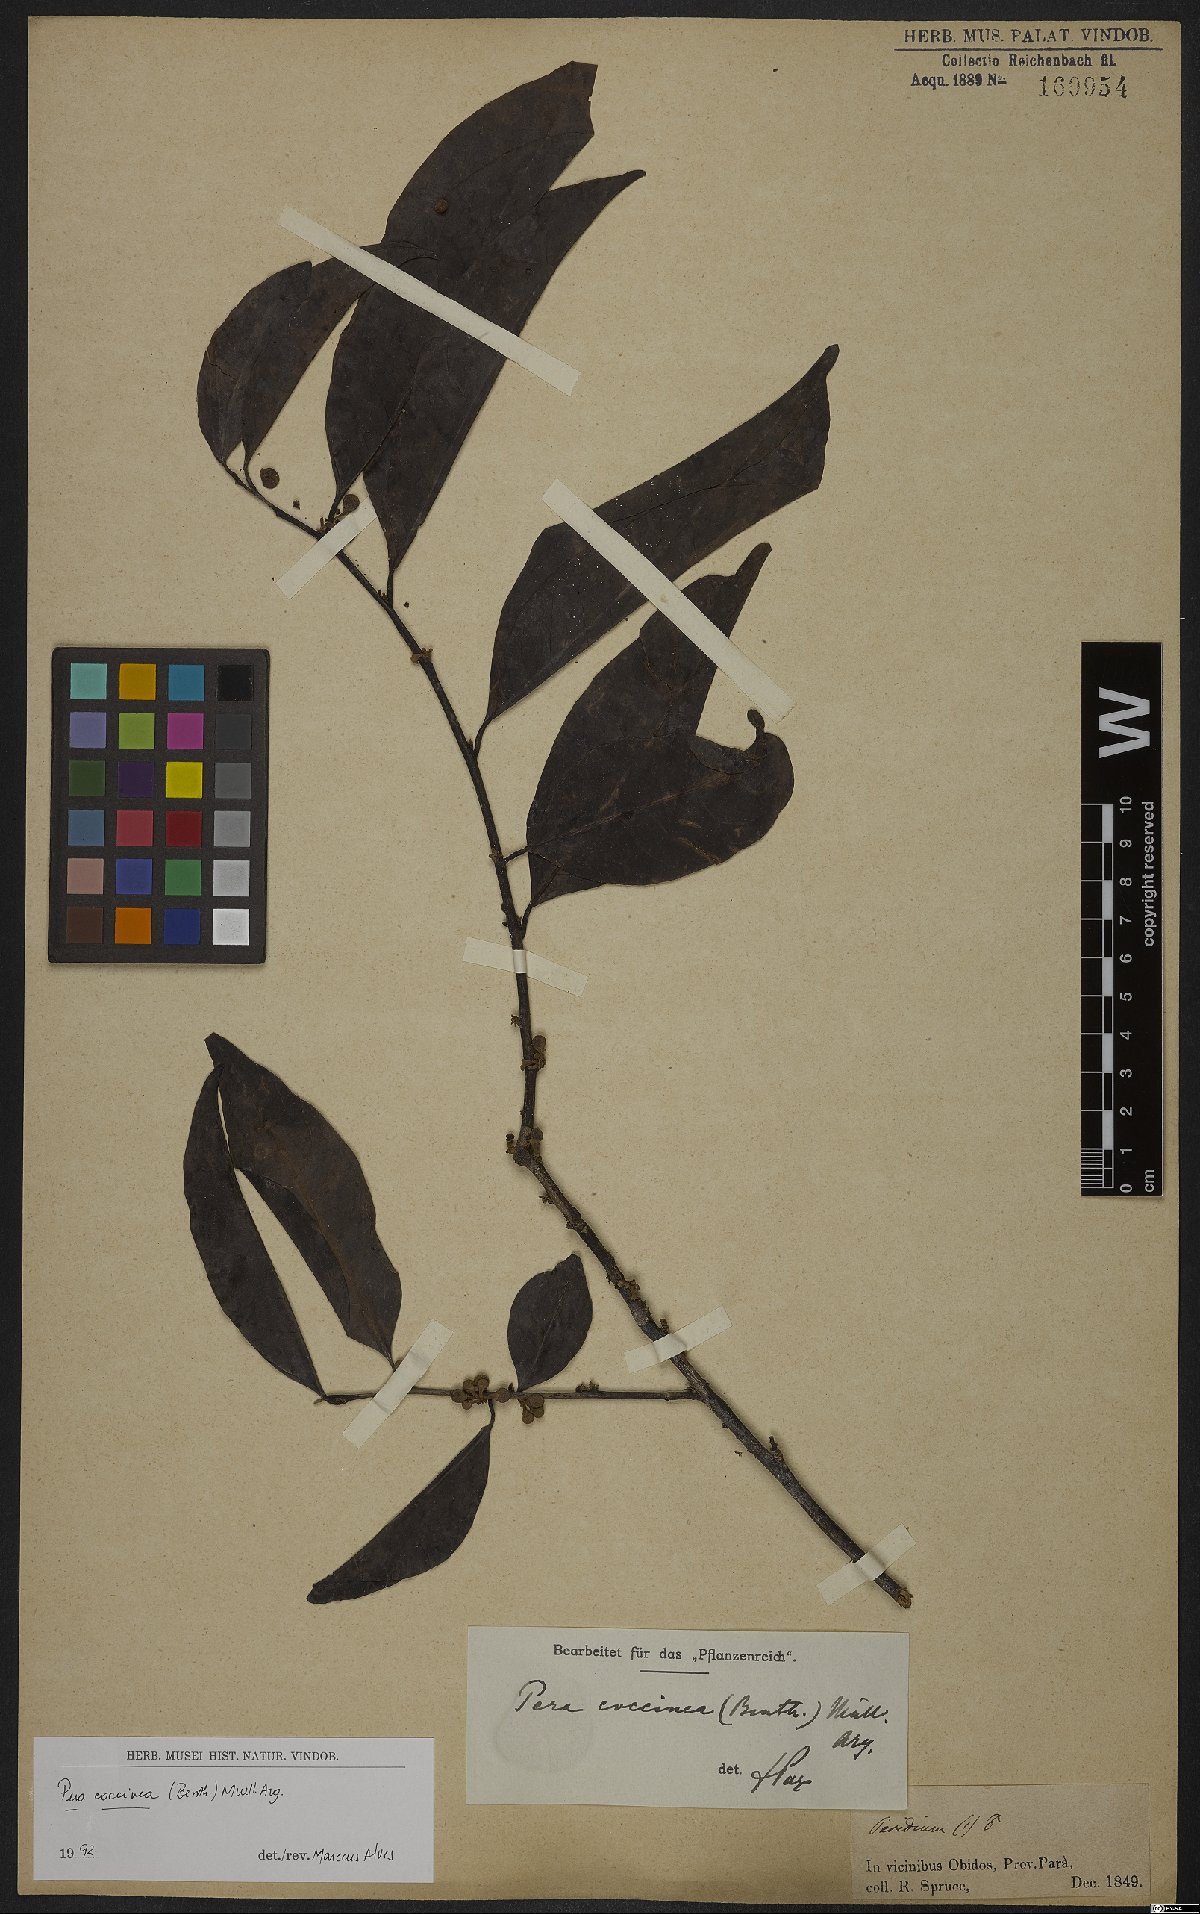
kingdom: Plantae
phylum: Tracheophyta
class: Magnoliopsida
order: Malpighiales
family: Peraceae
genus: Pera
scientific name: Pera coccinea
